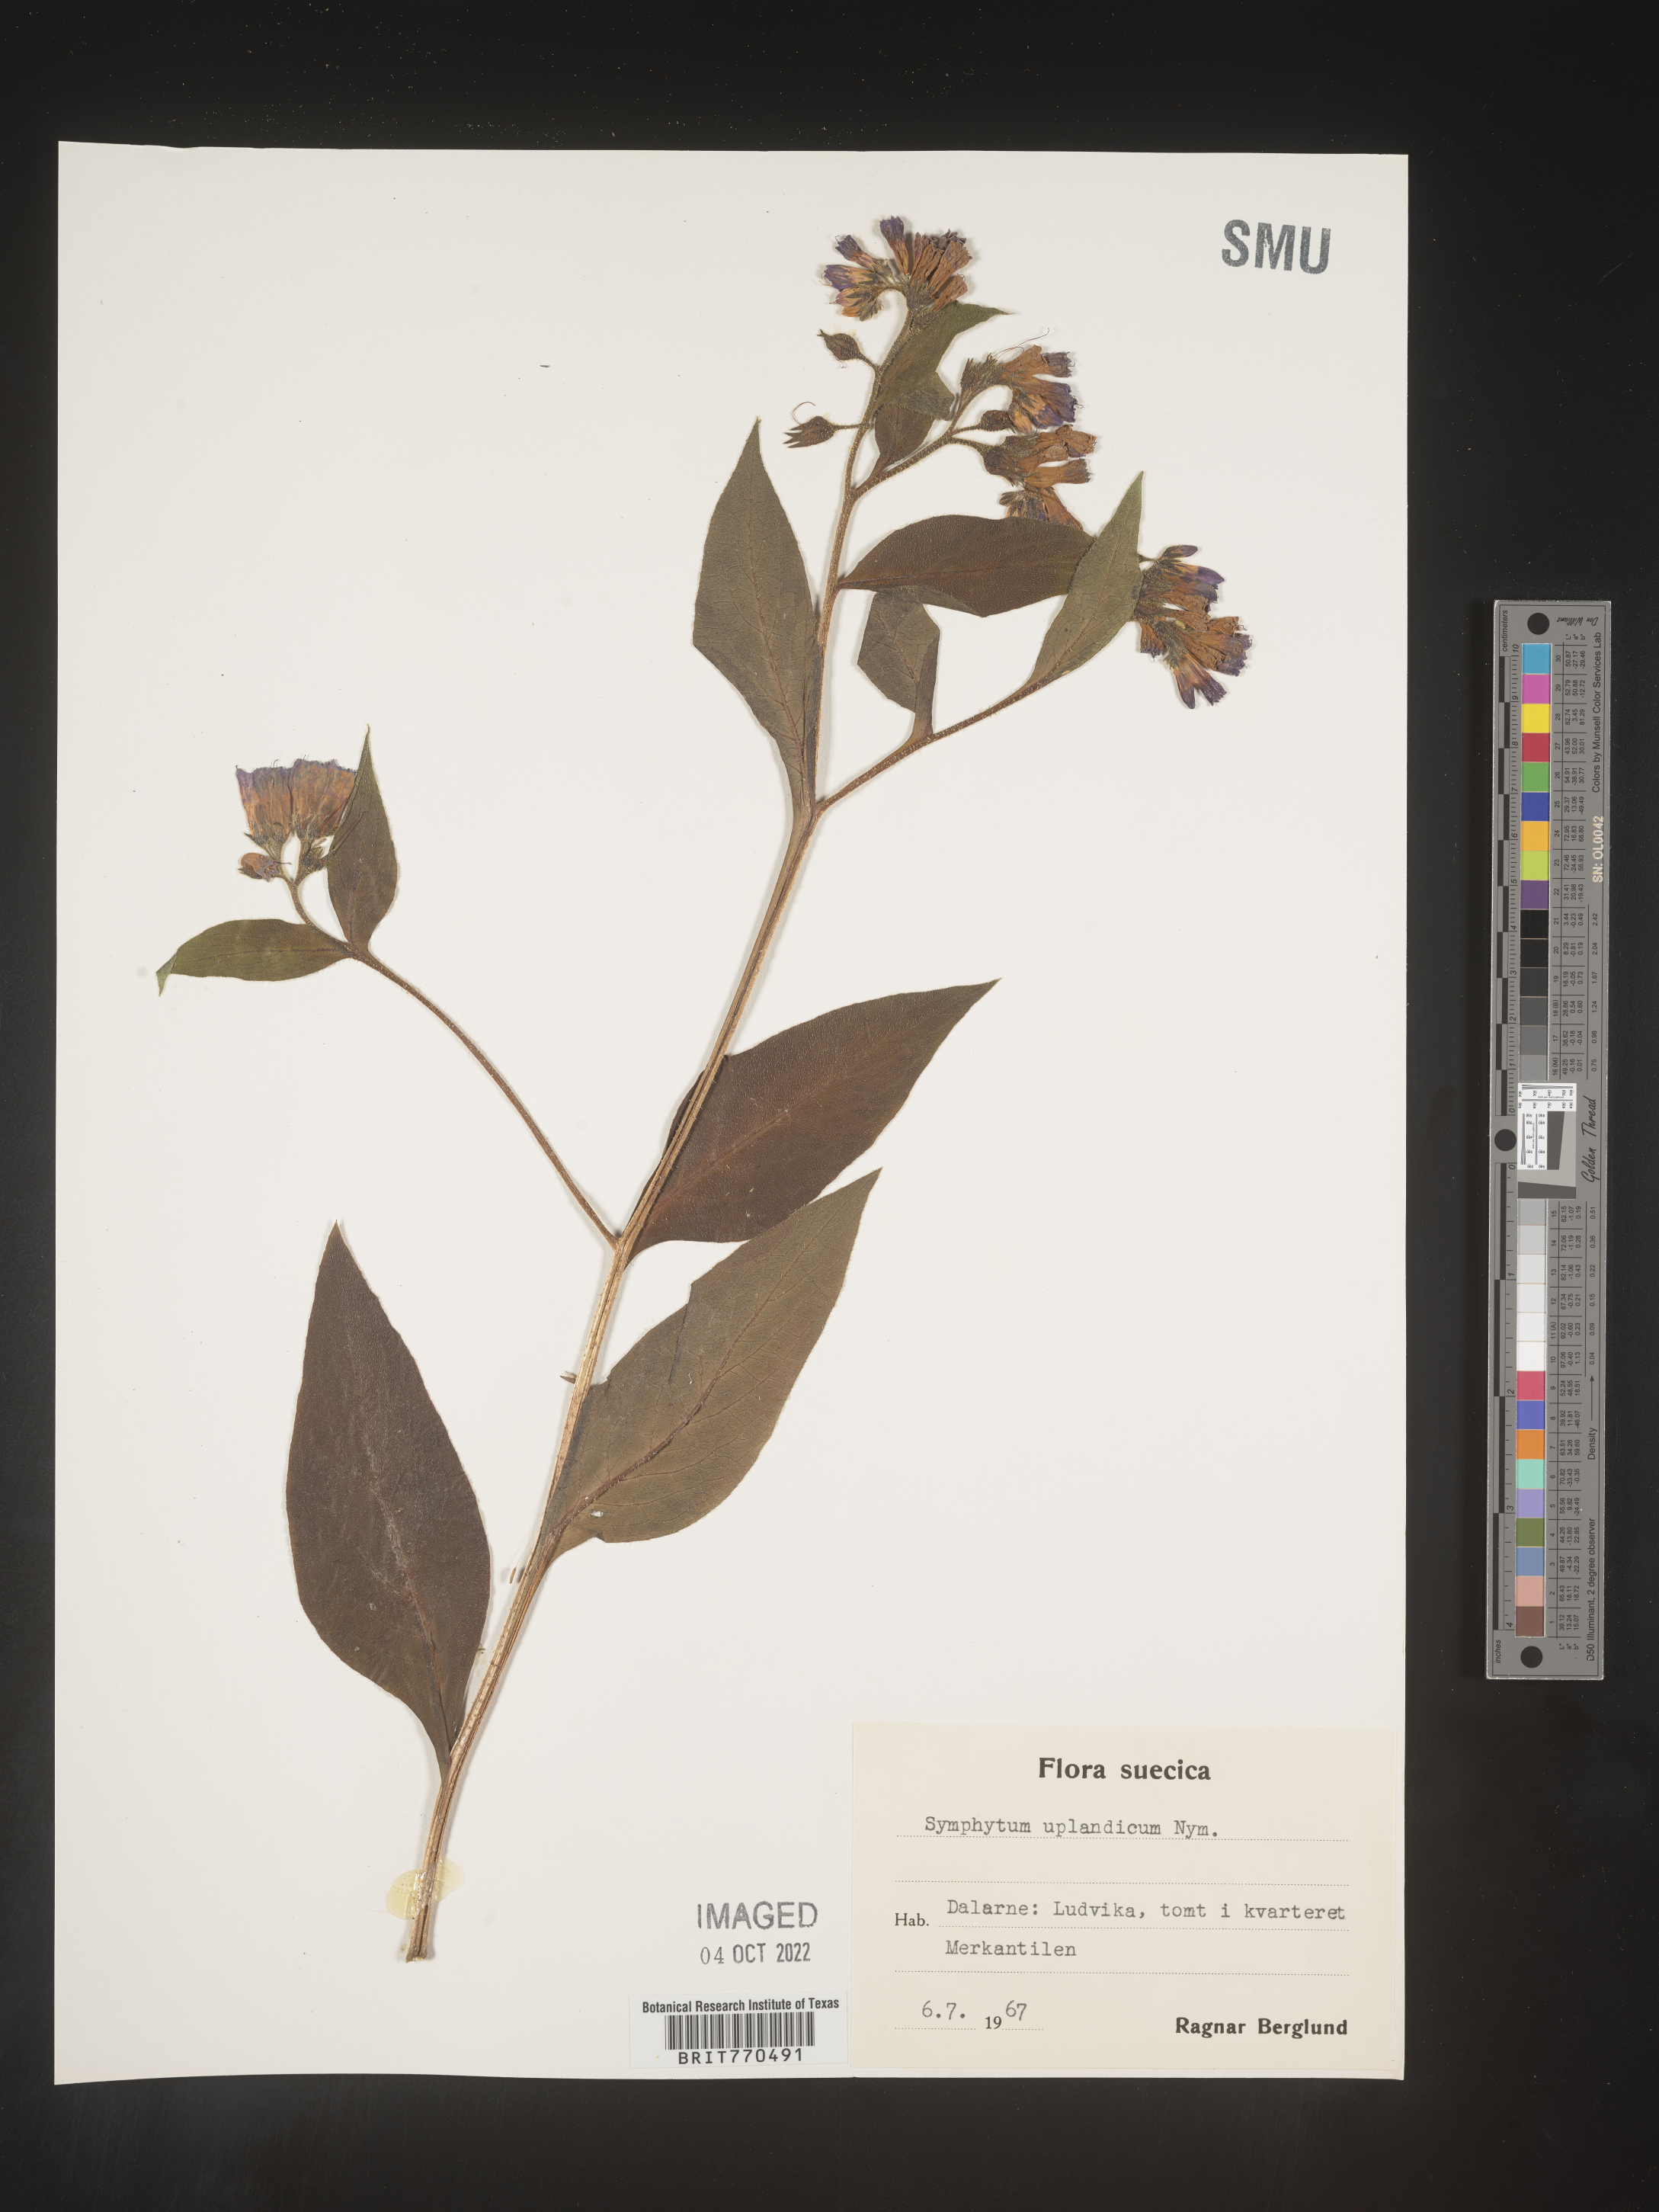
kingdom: Plantae
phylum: Tracheophyta
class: Magnoliopsida
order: Boraginales
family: Boraginaceae
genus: Symphytum
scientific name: Symphytum
